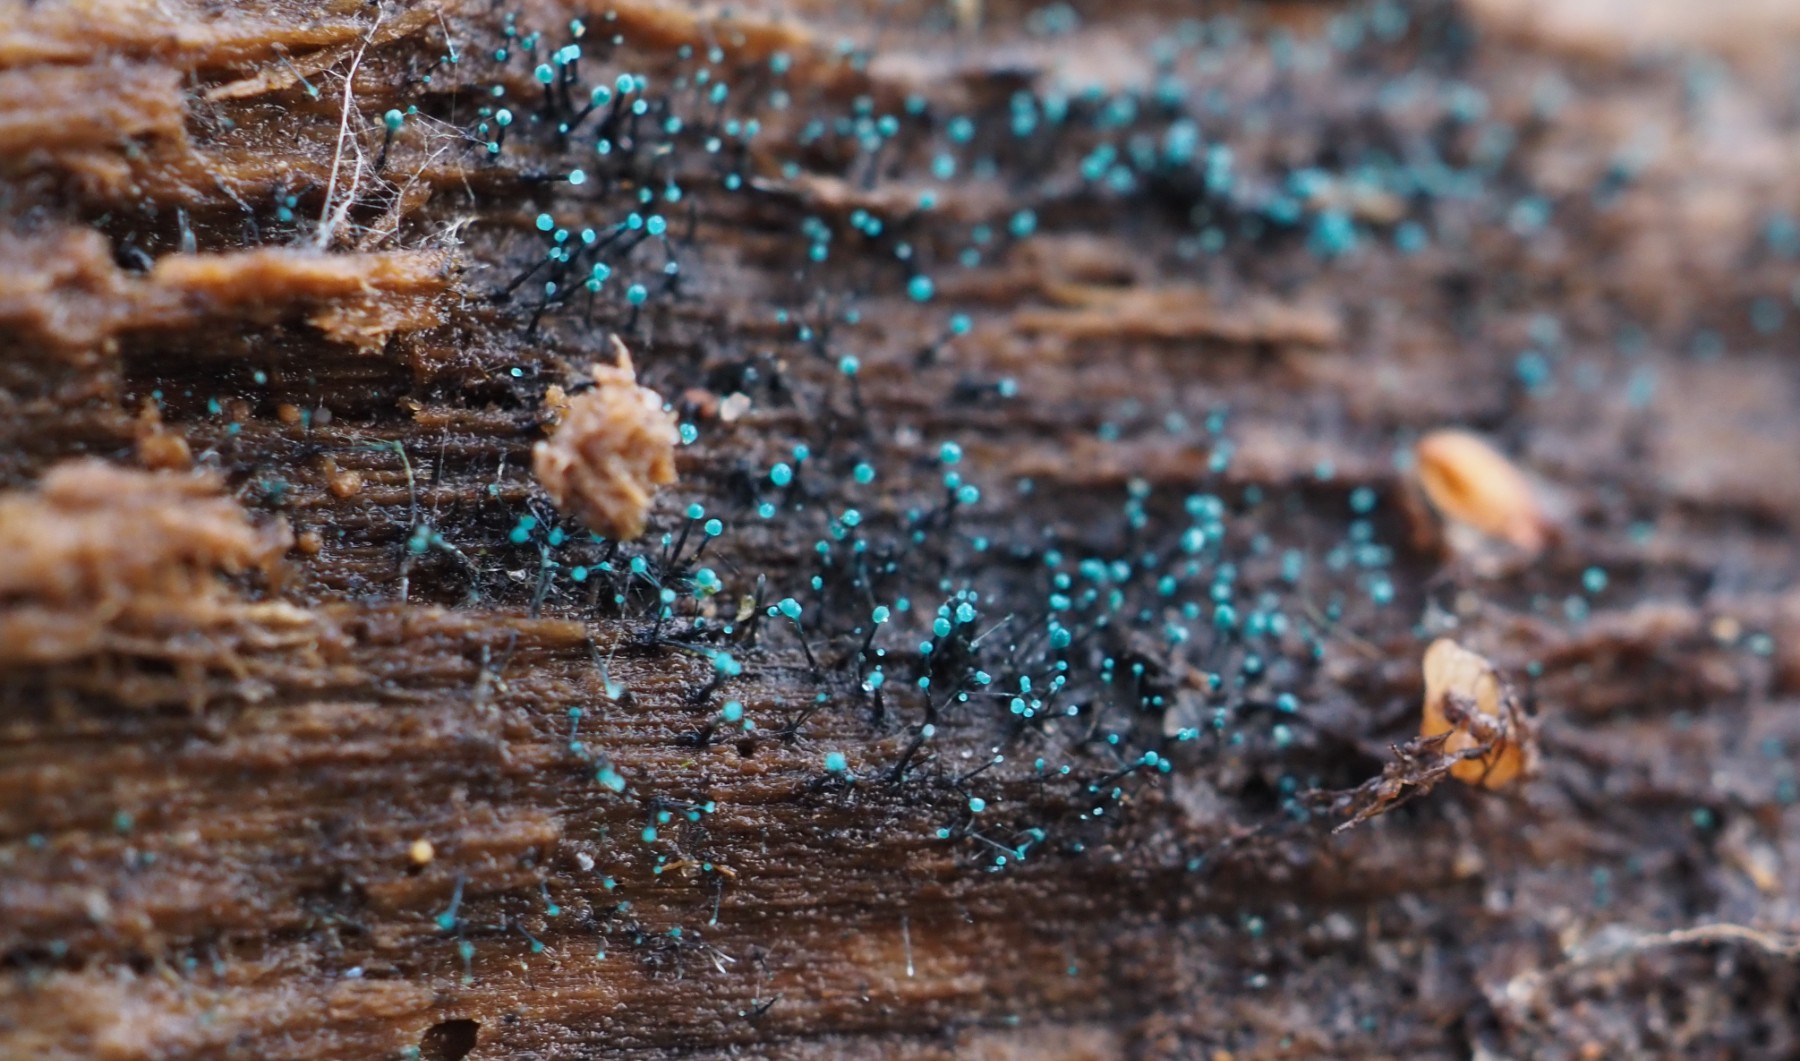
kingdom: Fungi
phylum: Ascomycota
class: Leotiomycetes
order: Leotiales
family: Tympanidaceae
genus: Dendrostilbella
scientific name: Dendrostilbella smaragdina
